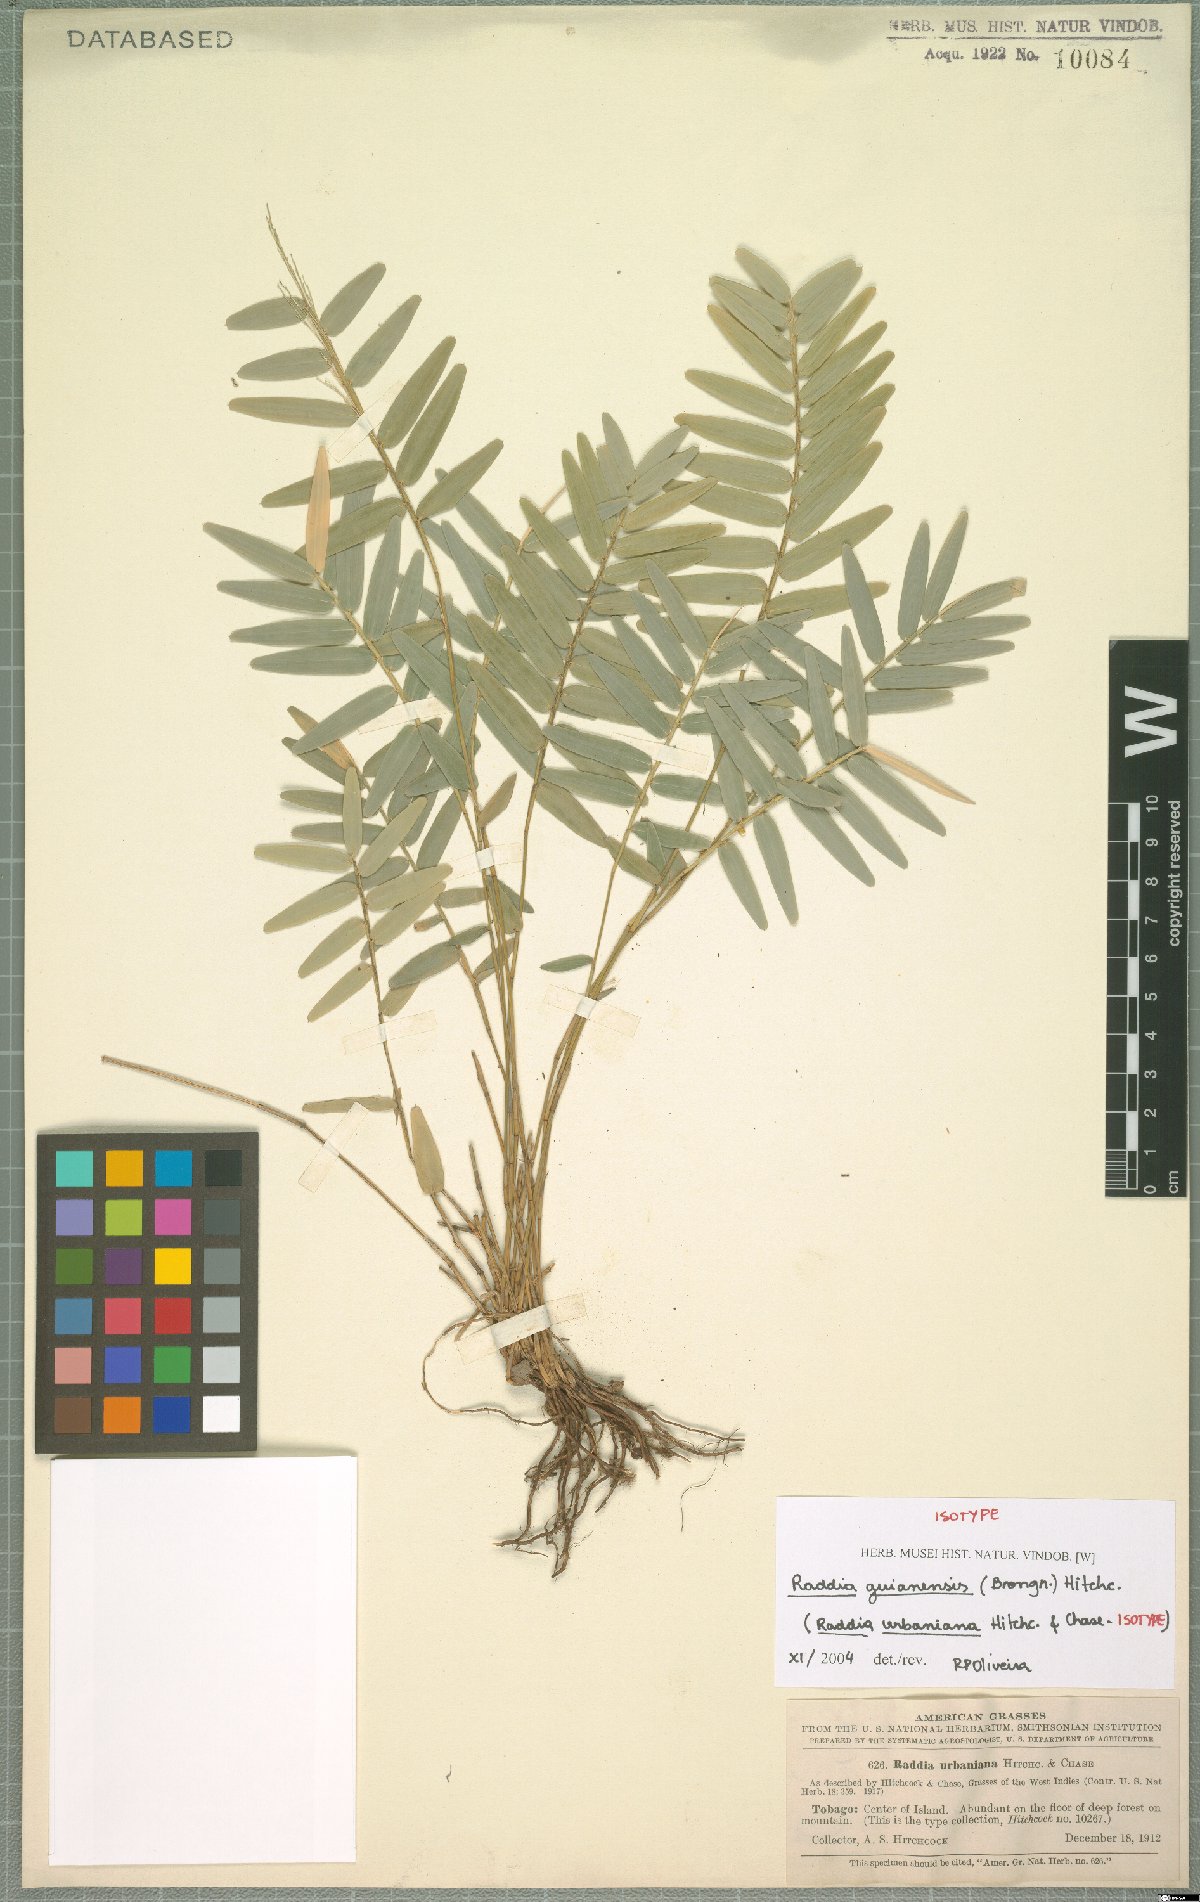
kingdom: Plantae
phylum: Tracheophyta
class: Liliopsida
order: Poales
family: Poaceae
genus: Raddia
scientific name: Raddia guianensis
